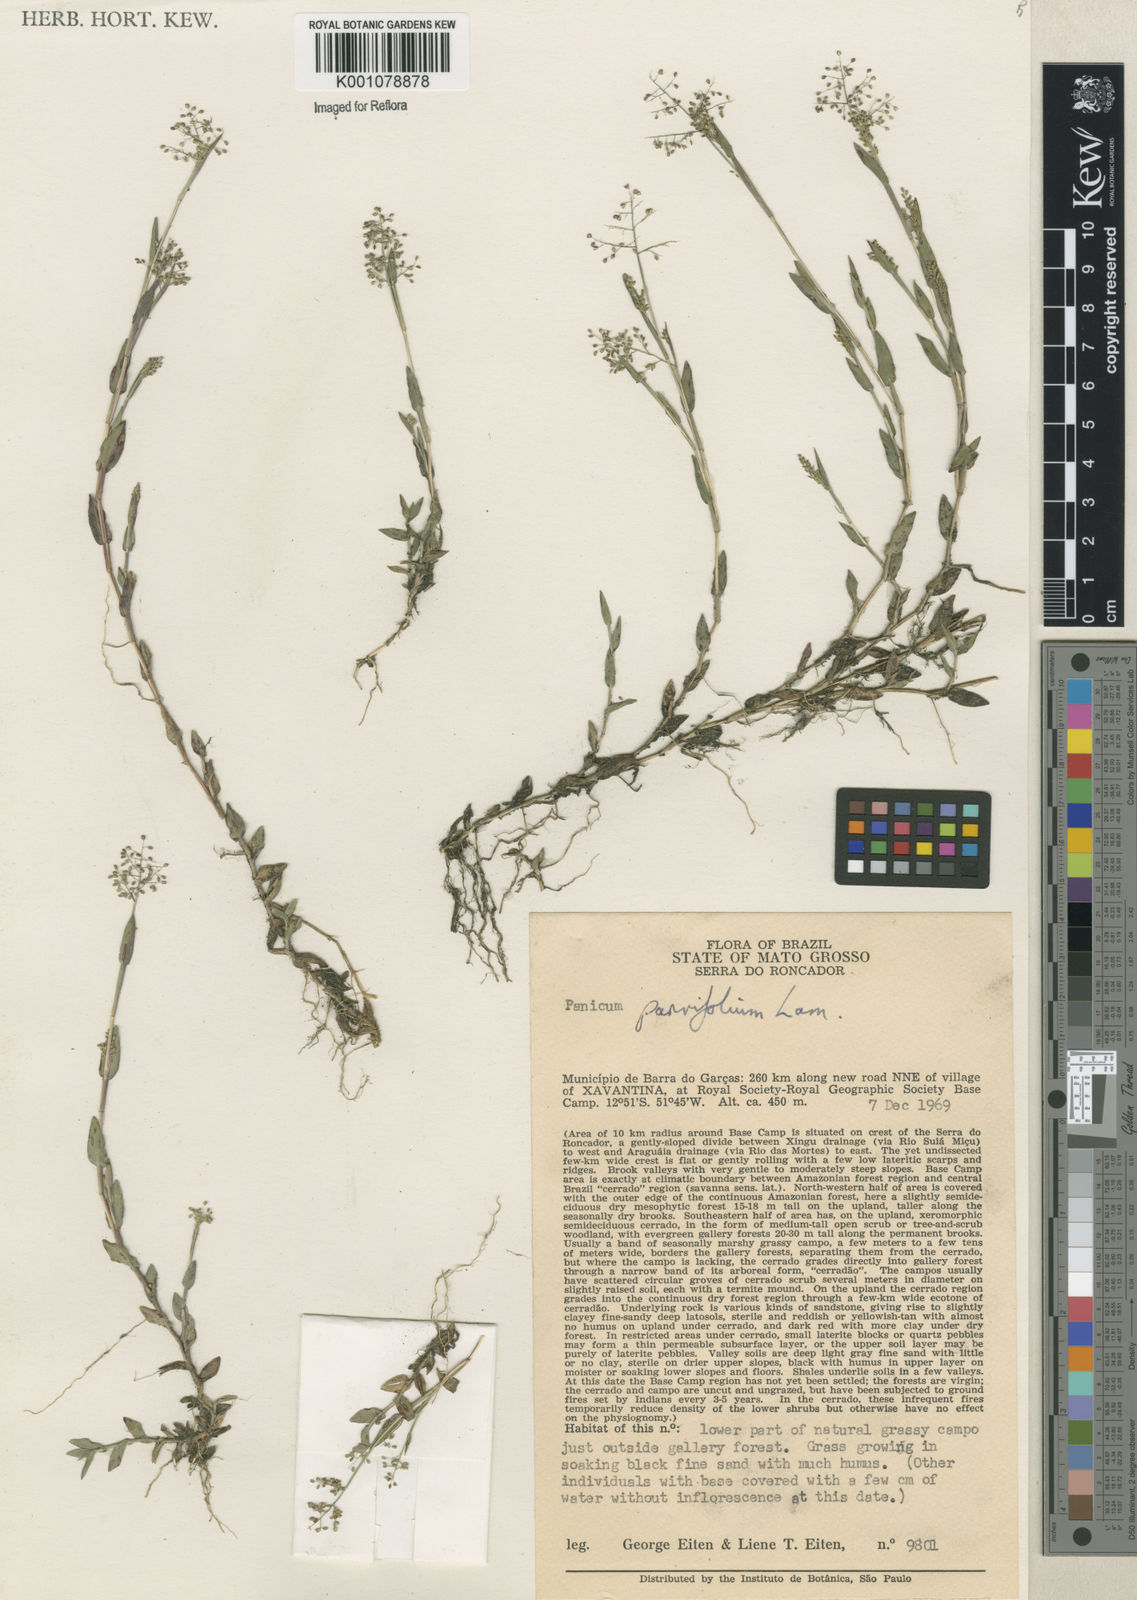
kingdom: Plantae
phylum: Tracheophyta
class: Liliopsida
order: Poales
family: Poaceae
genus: Trichanthecium
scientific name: Trichanthecium parvifolium
